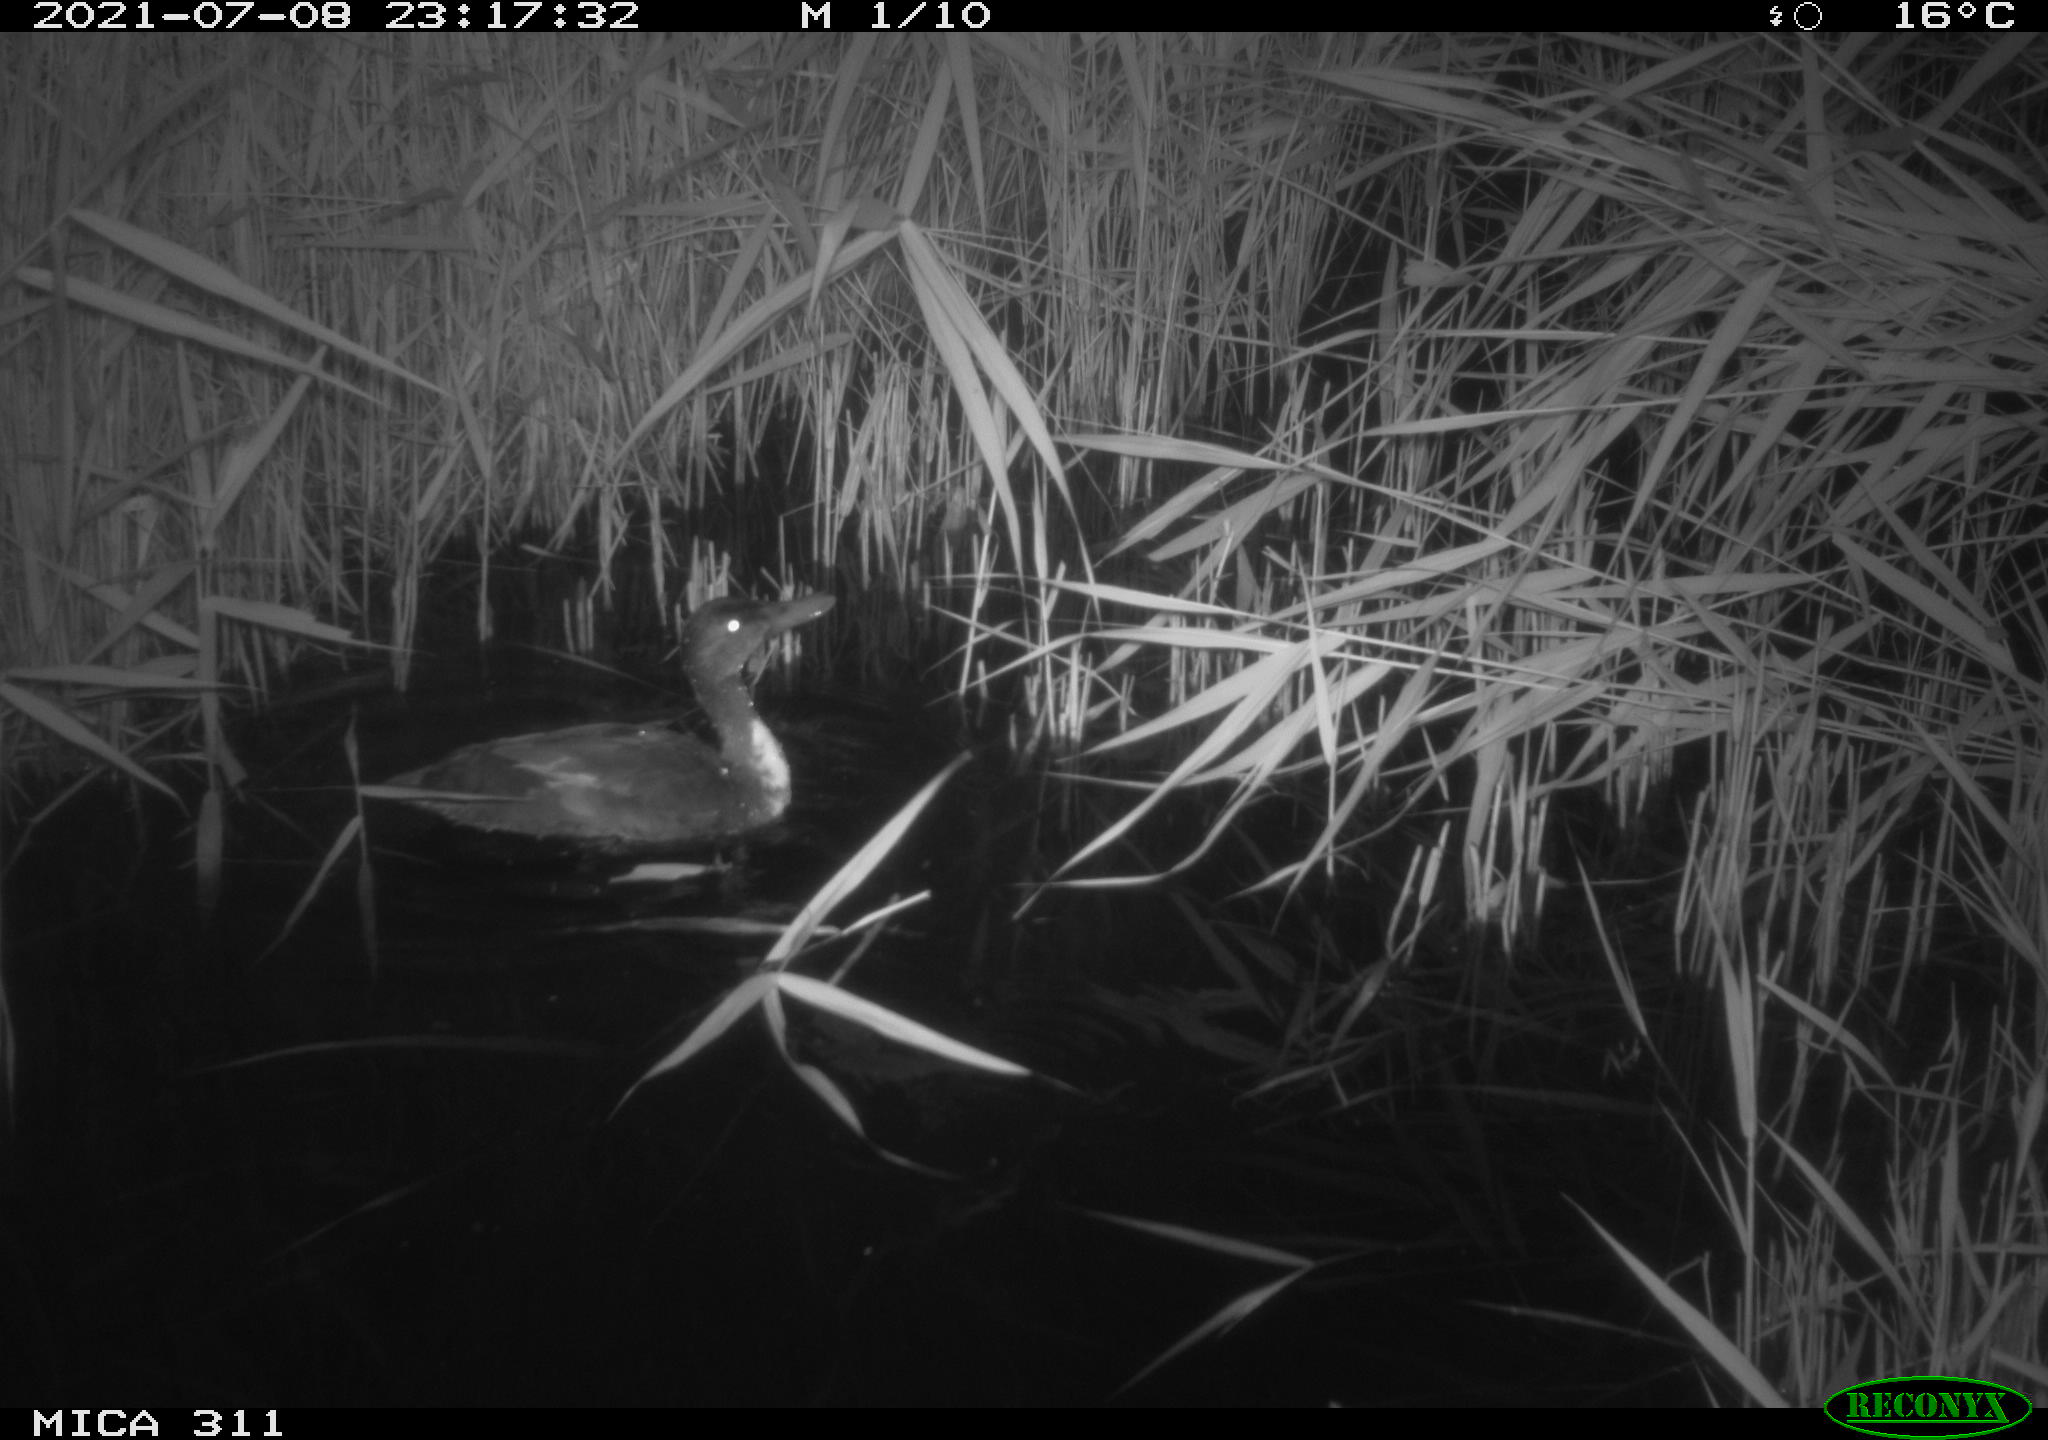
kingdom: Animalia
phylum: Chordata
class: Aves
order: Anseriformes
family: Anatidae
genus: Anas
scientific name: Anas platyrhynchos
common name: Mallard
